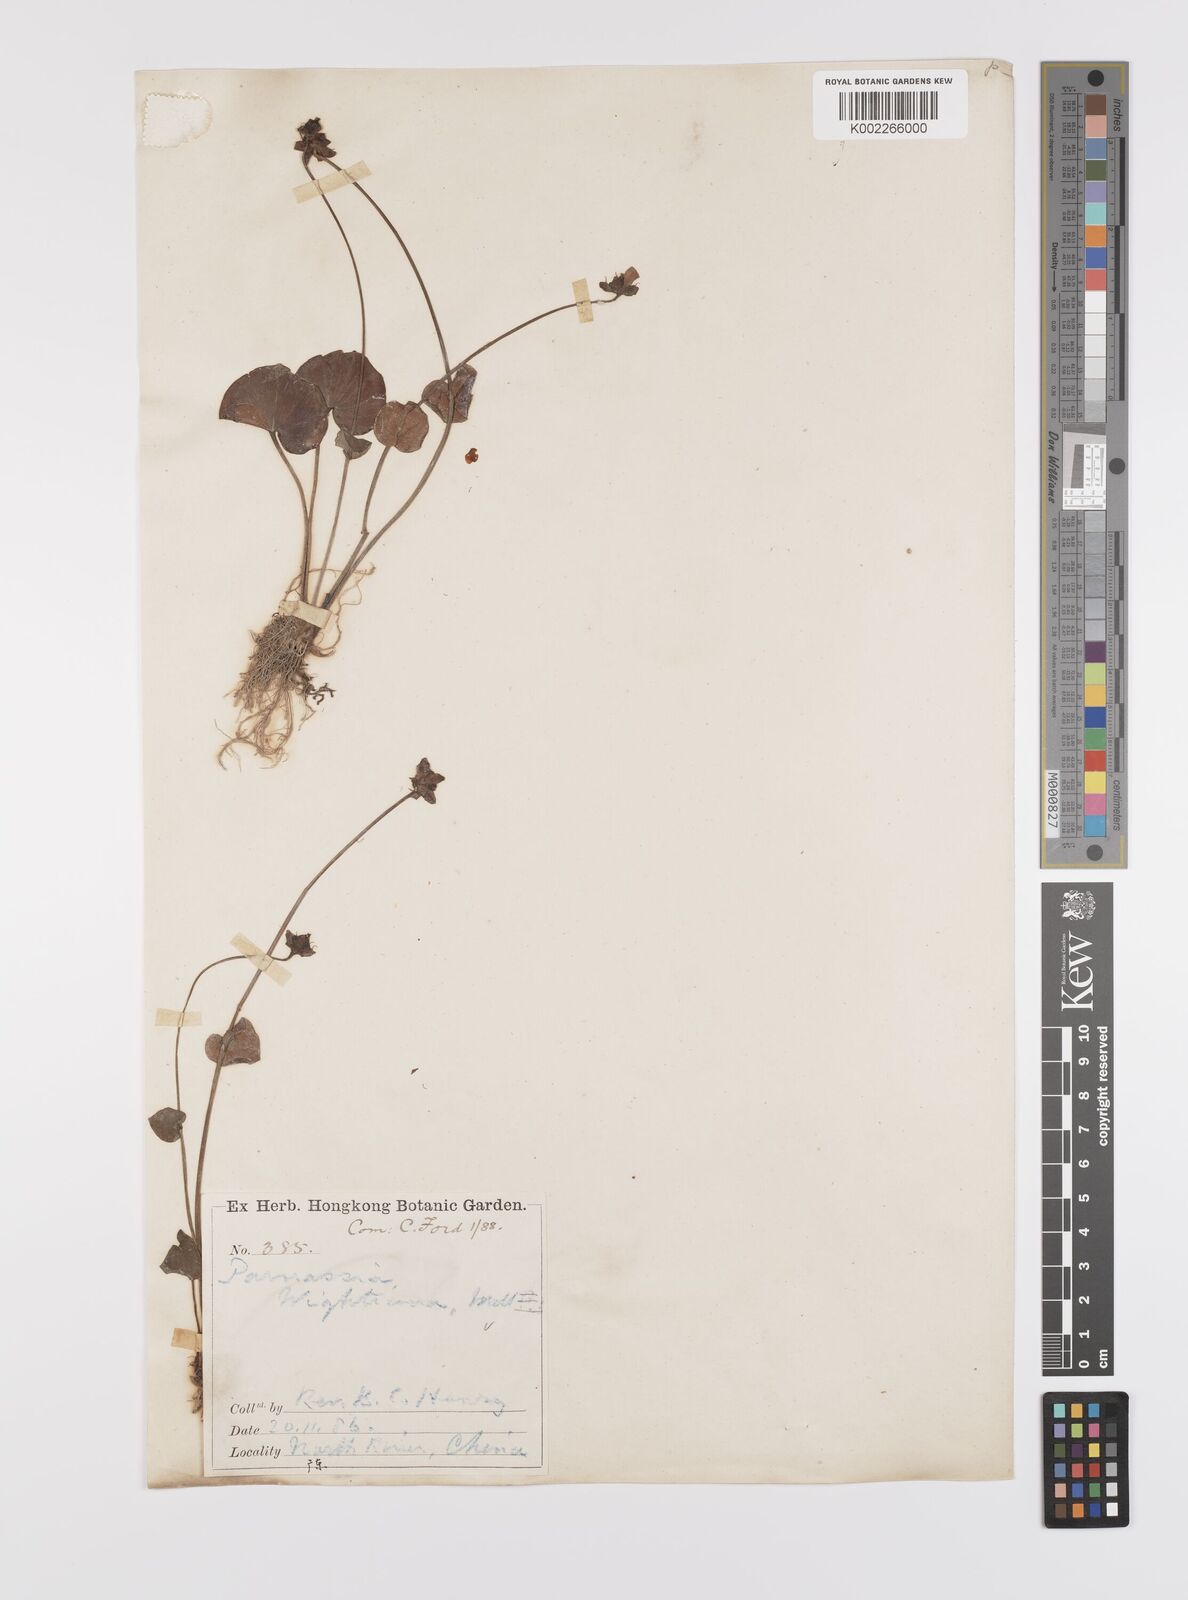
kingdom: Plantae
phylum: Tracheophyta
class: Magnoliopsida
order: Celastrales
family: Parnassiaceae
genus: Parnassia
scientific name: Parnassia wightiana
